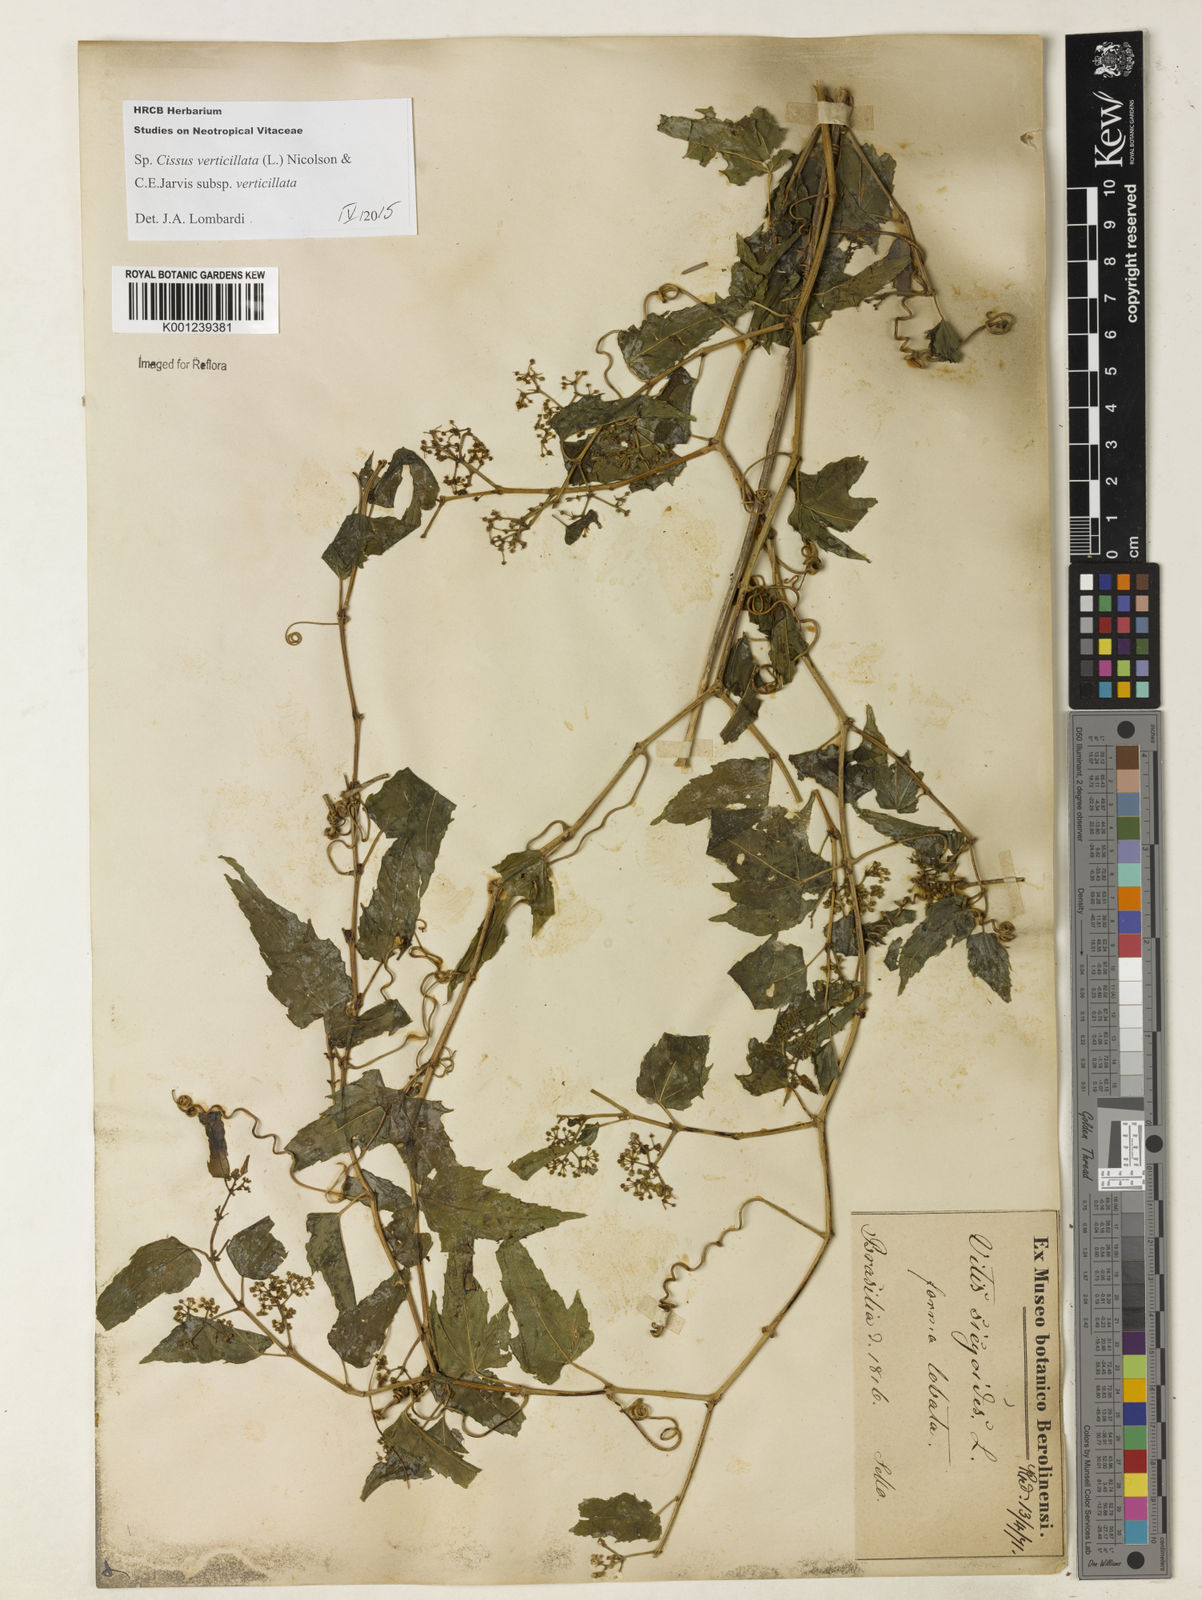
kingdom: Plantae
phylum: Tracheophyta
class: Magnoliopsida
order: Vitales
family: Vitaceae
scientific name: Vitaceae
